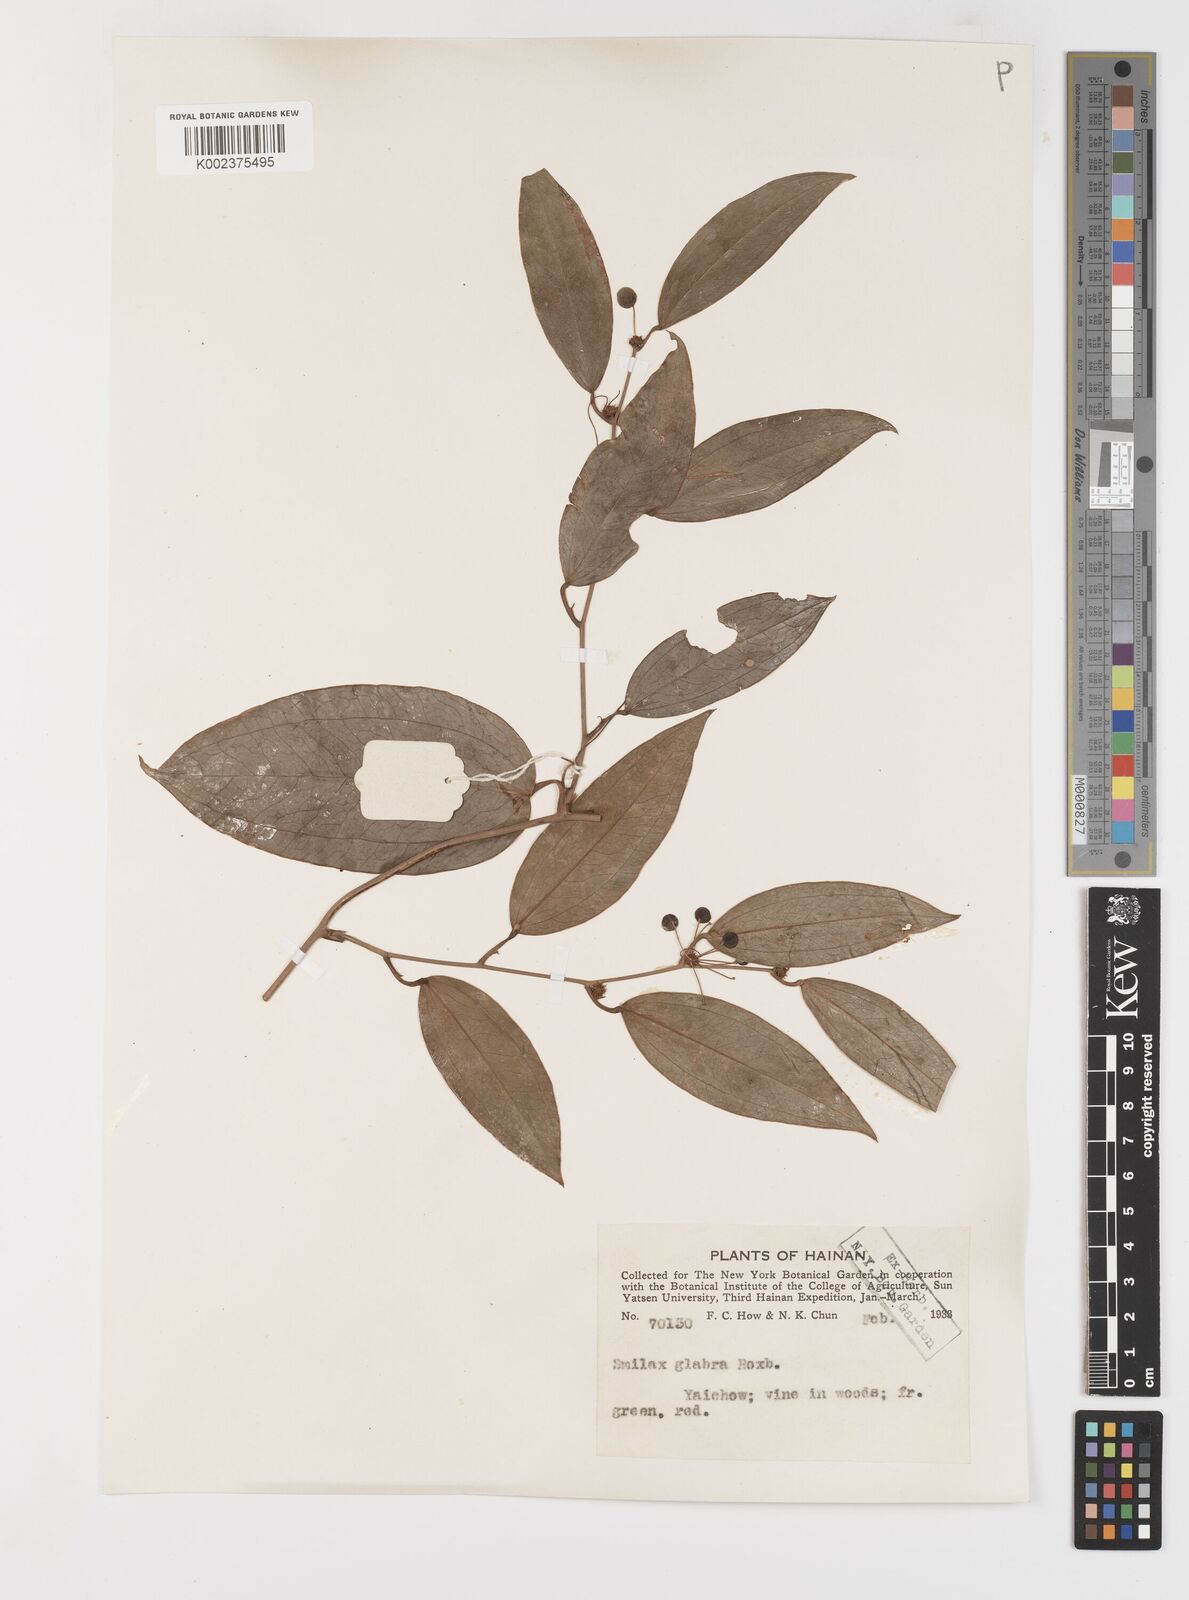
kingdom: Plantae
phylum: Tracheophyta
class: Liliopsida
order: Liliales
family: Smilacaceae
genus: Smilax
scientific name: Smilax glabra
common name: Chinese smilax
